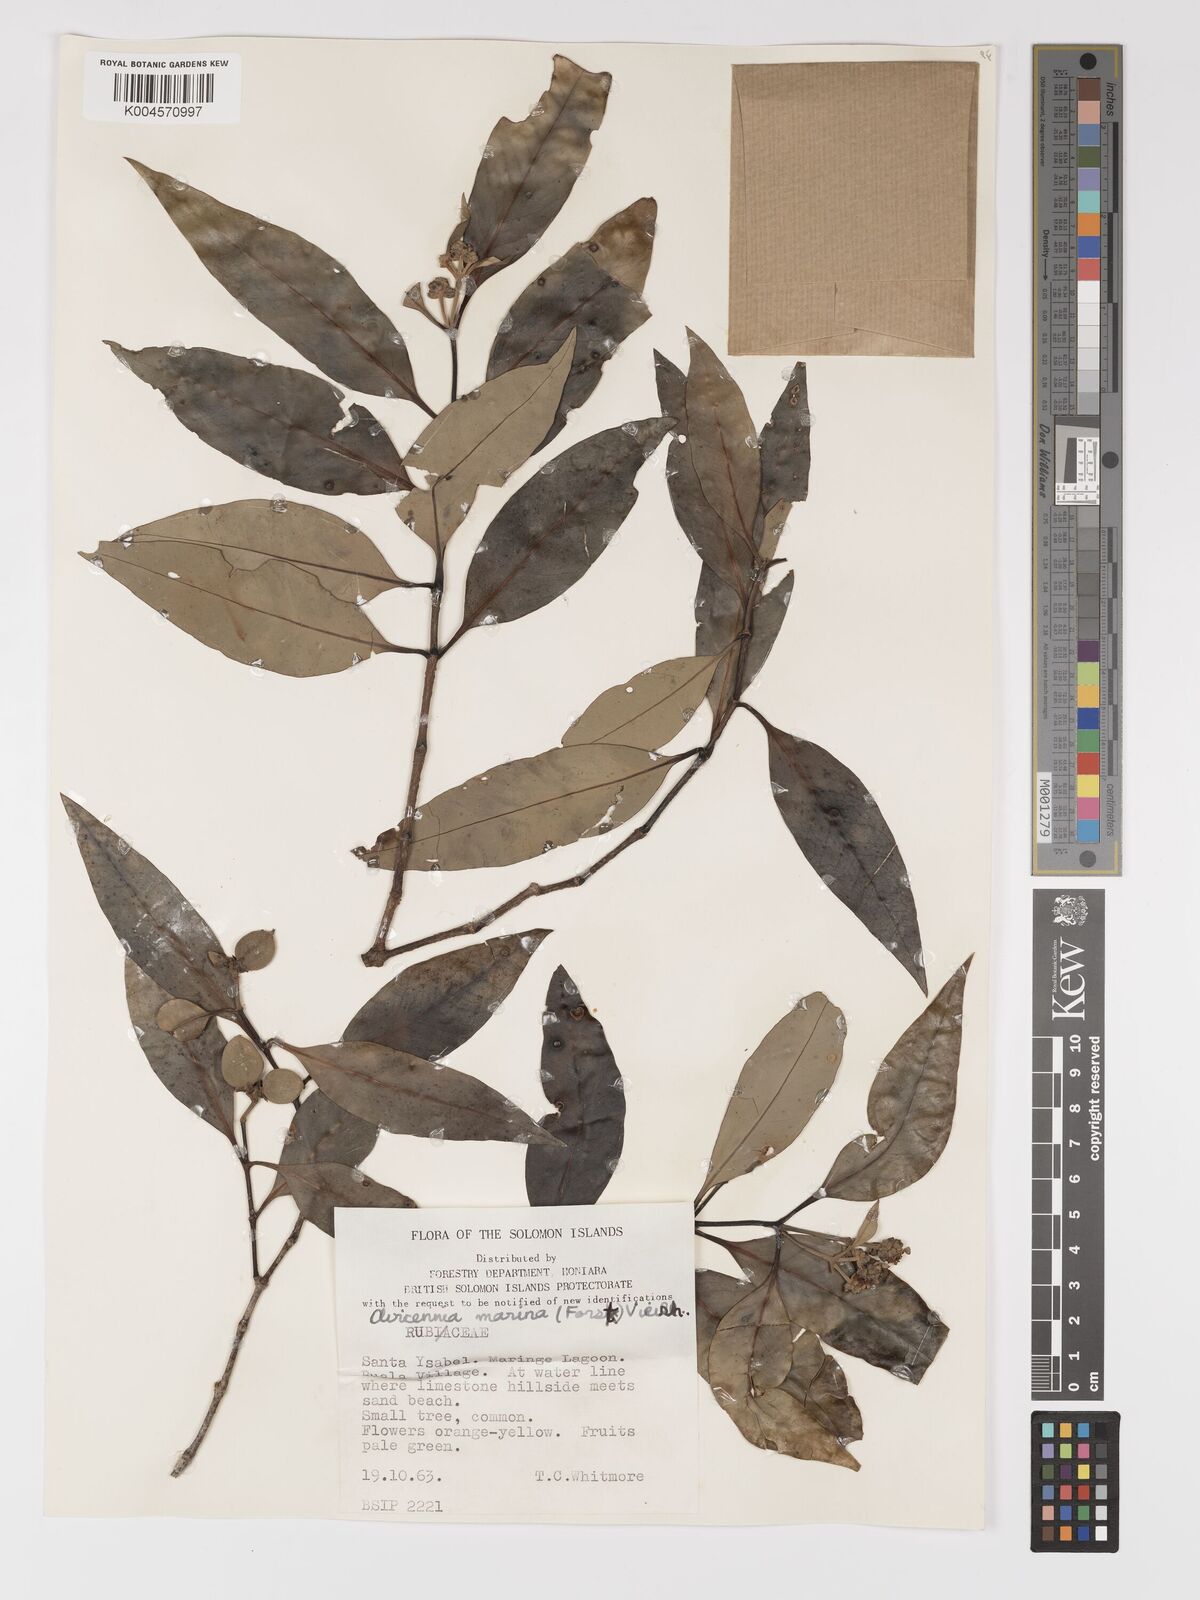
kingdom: Plantae
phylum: Tracheophyta
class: Magnoliopsida
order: Lamiales
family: Acanthaceae
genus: Avicennia
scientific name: Avicennia marina
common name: Gray mangrove
